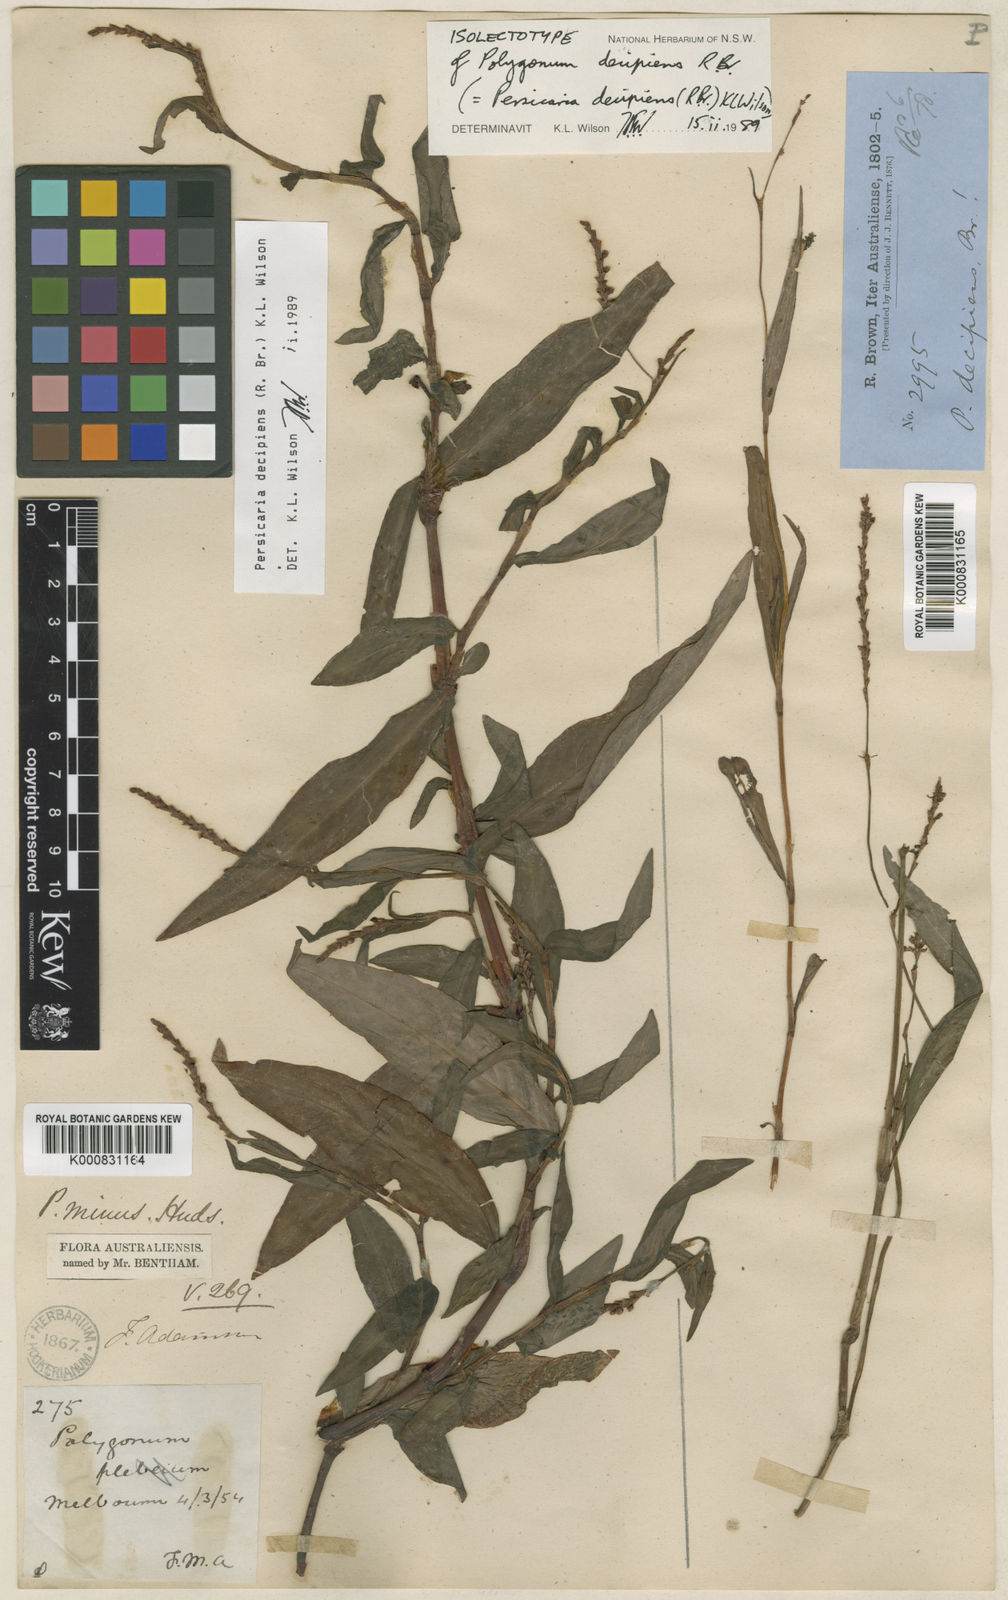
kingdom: Plantae
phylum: Tracheophyta
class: Magnoliopsida
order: Caryophyllales
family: Polygonaceae
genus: Persicaria
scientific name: Persicaria decipiens
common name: Willow-weed
